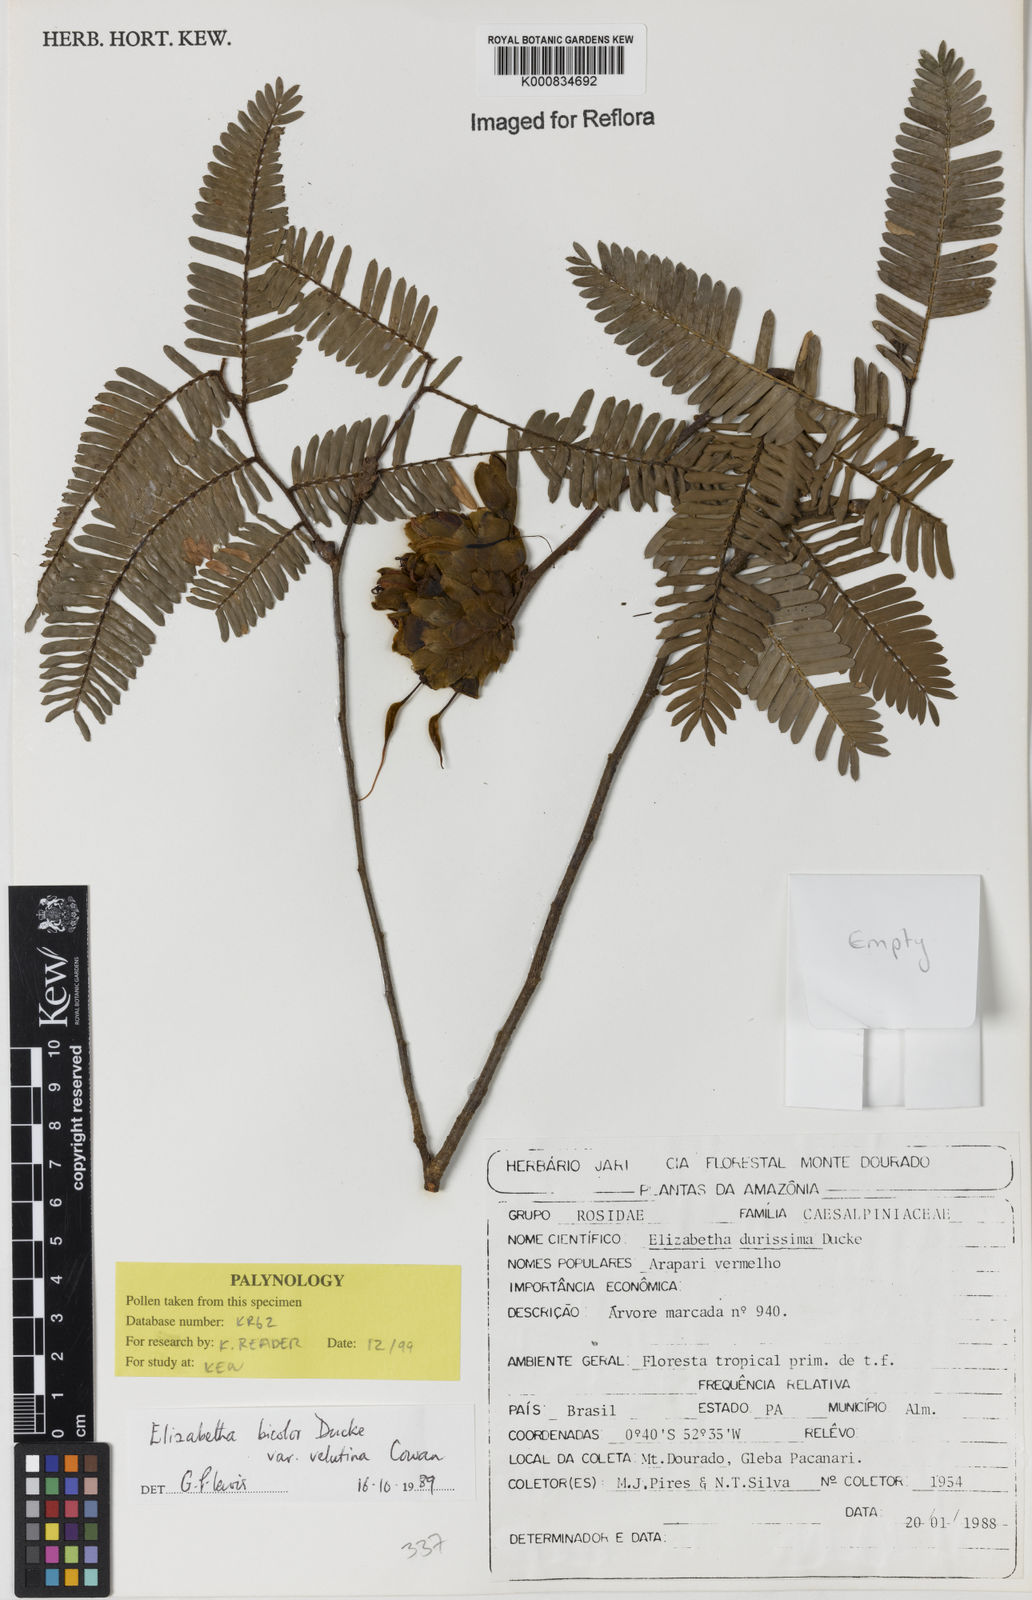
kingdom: Plantae
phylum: Tracheophyta
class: Magnoliopsida
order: Fabales
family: Fabaceae
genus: Paloue
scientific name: Paloue bicolor
